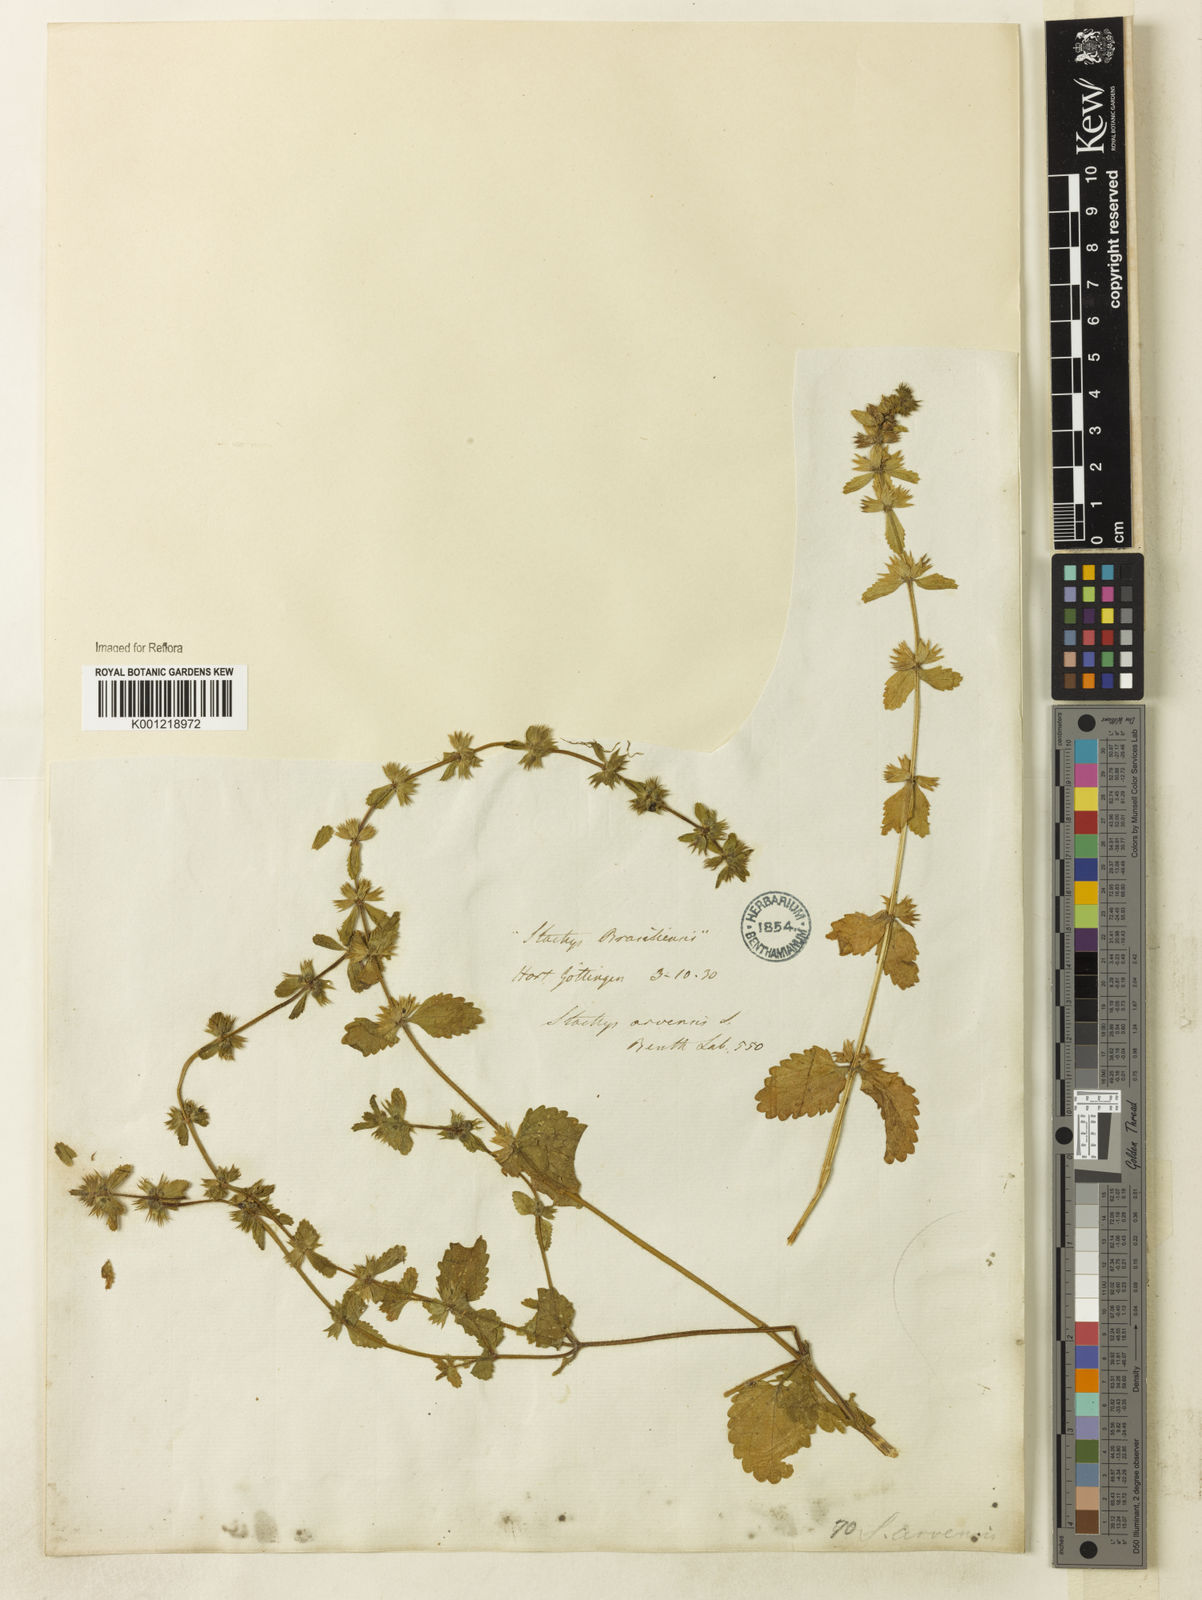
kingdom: Plantae
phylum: Tracheophyta
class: Magnoliopsida
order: Lamiales
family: Lamiaceae
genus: Stachys
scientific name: Stachys arvensis
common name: Field woundwort
